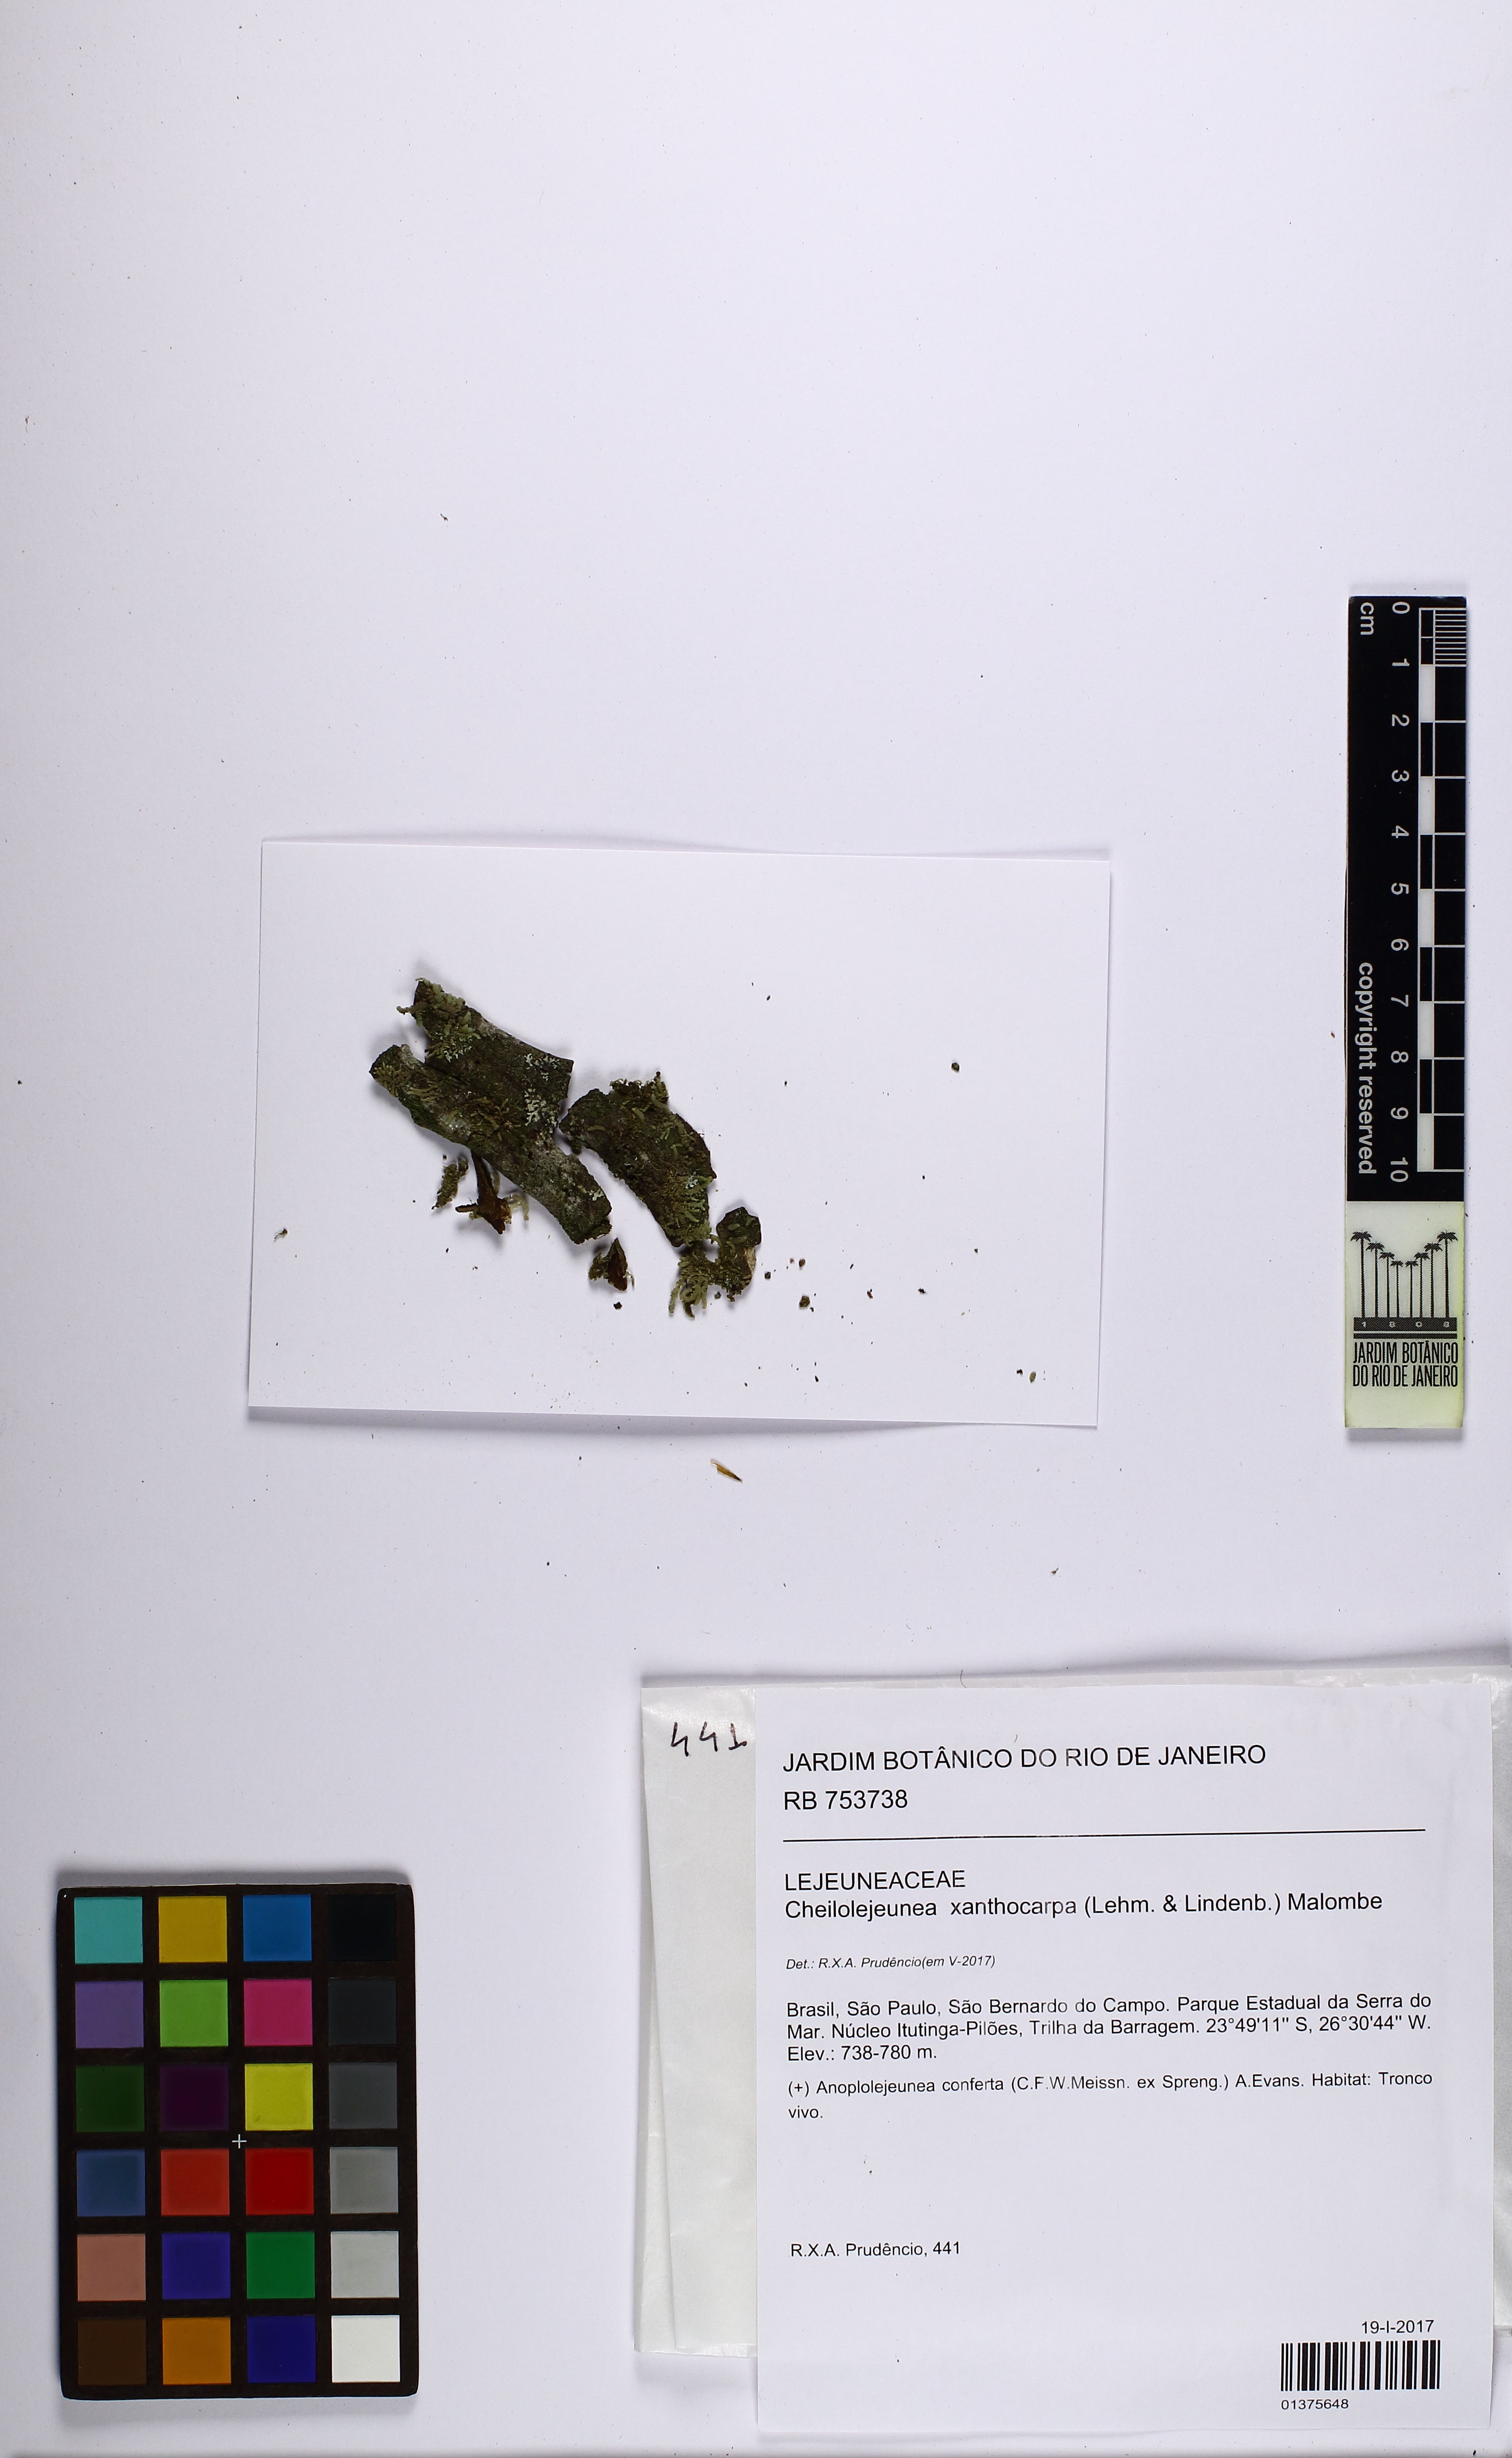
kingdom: Plantae
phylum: Marchantiophyta
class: Jungermanniopsida
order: Porellales
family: Lejeuneaceae
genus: Cheilolejeunea
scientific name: Cheilolejeunea xanthocarpa
